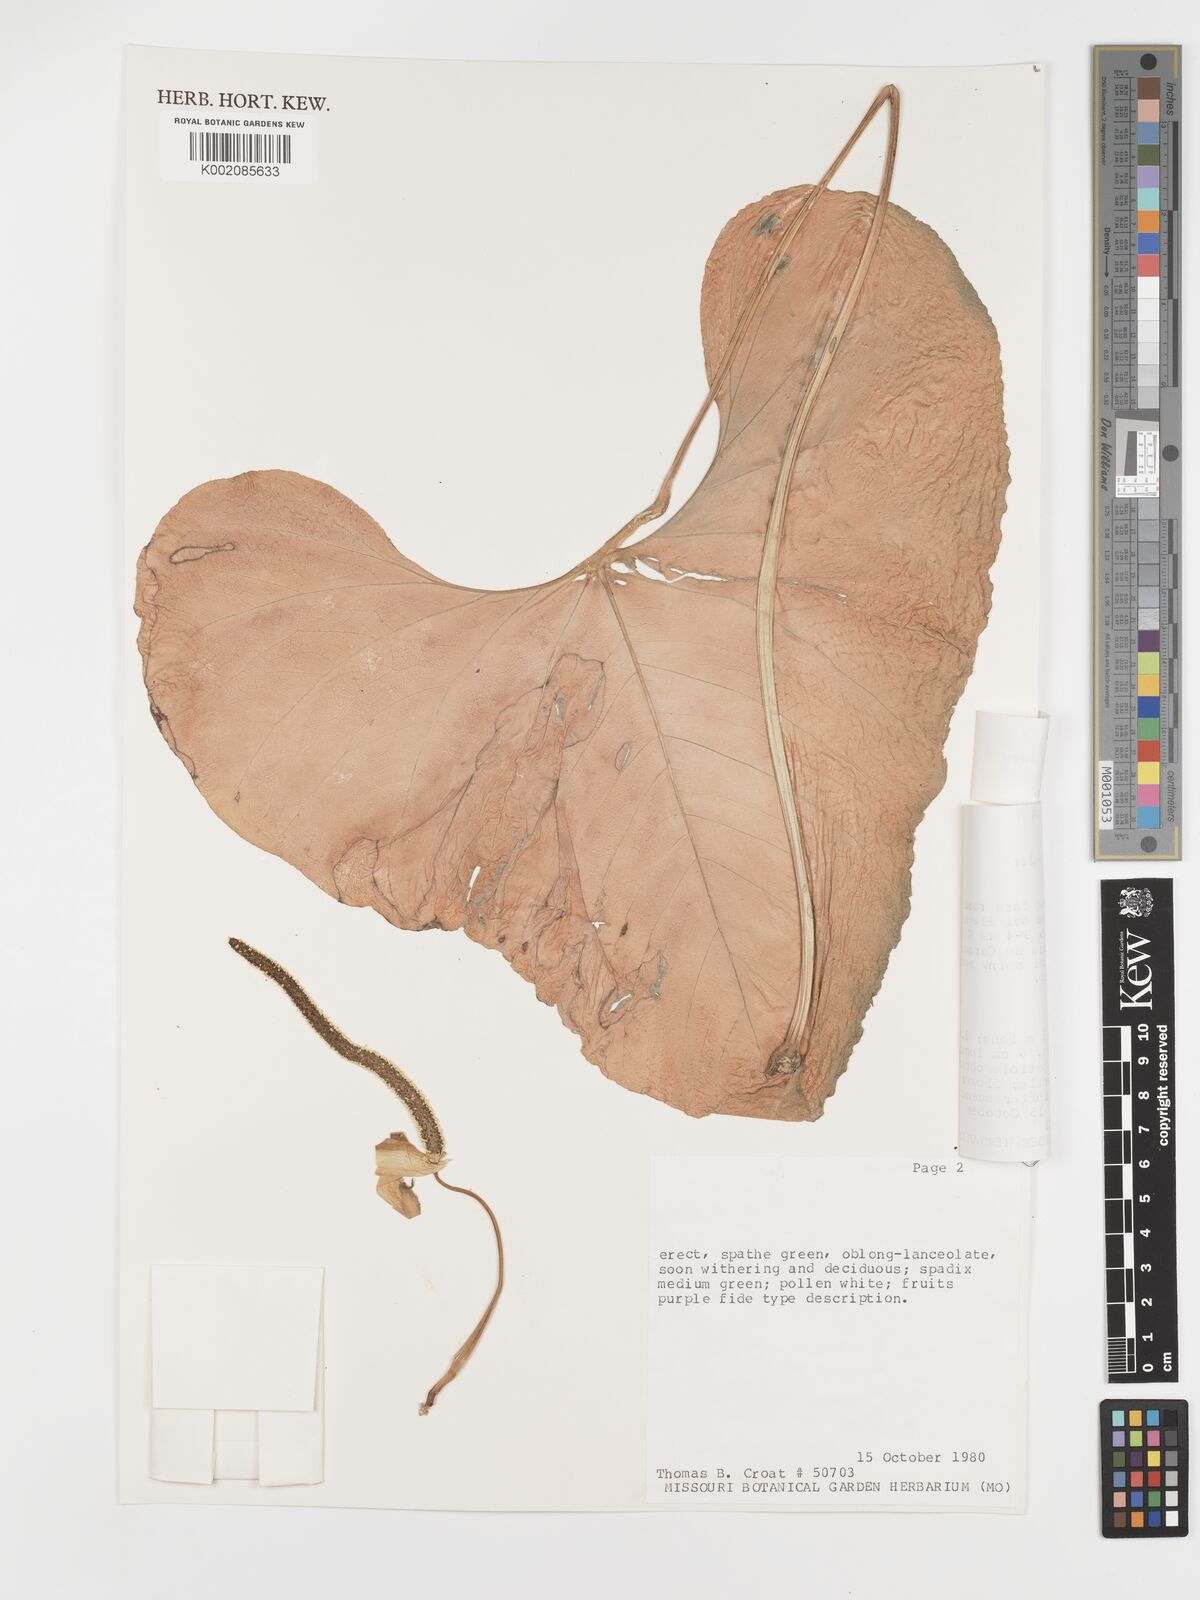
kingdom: Plantae
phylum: Tracheophyta
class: Liliopsida
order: Alismatales
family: Araceae
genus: Anthurium
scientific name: Anthurium balaoanum
